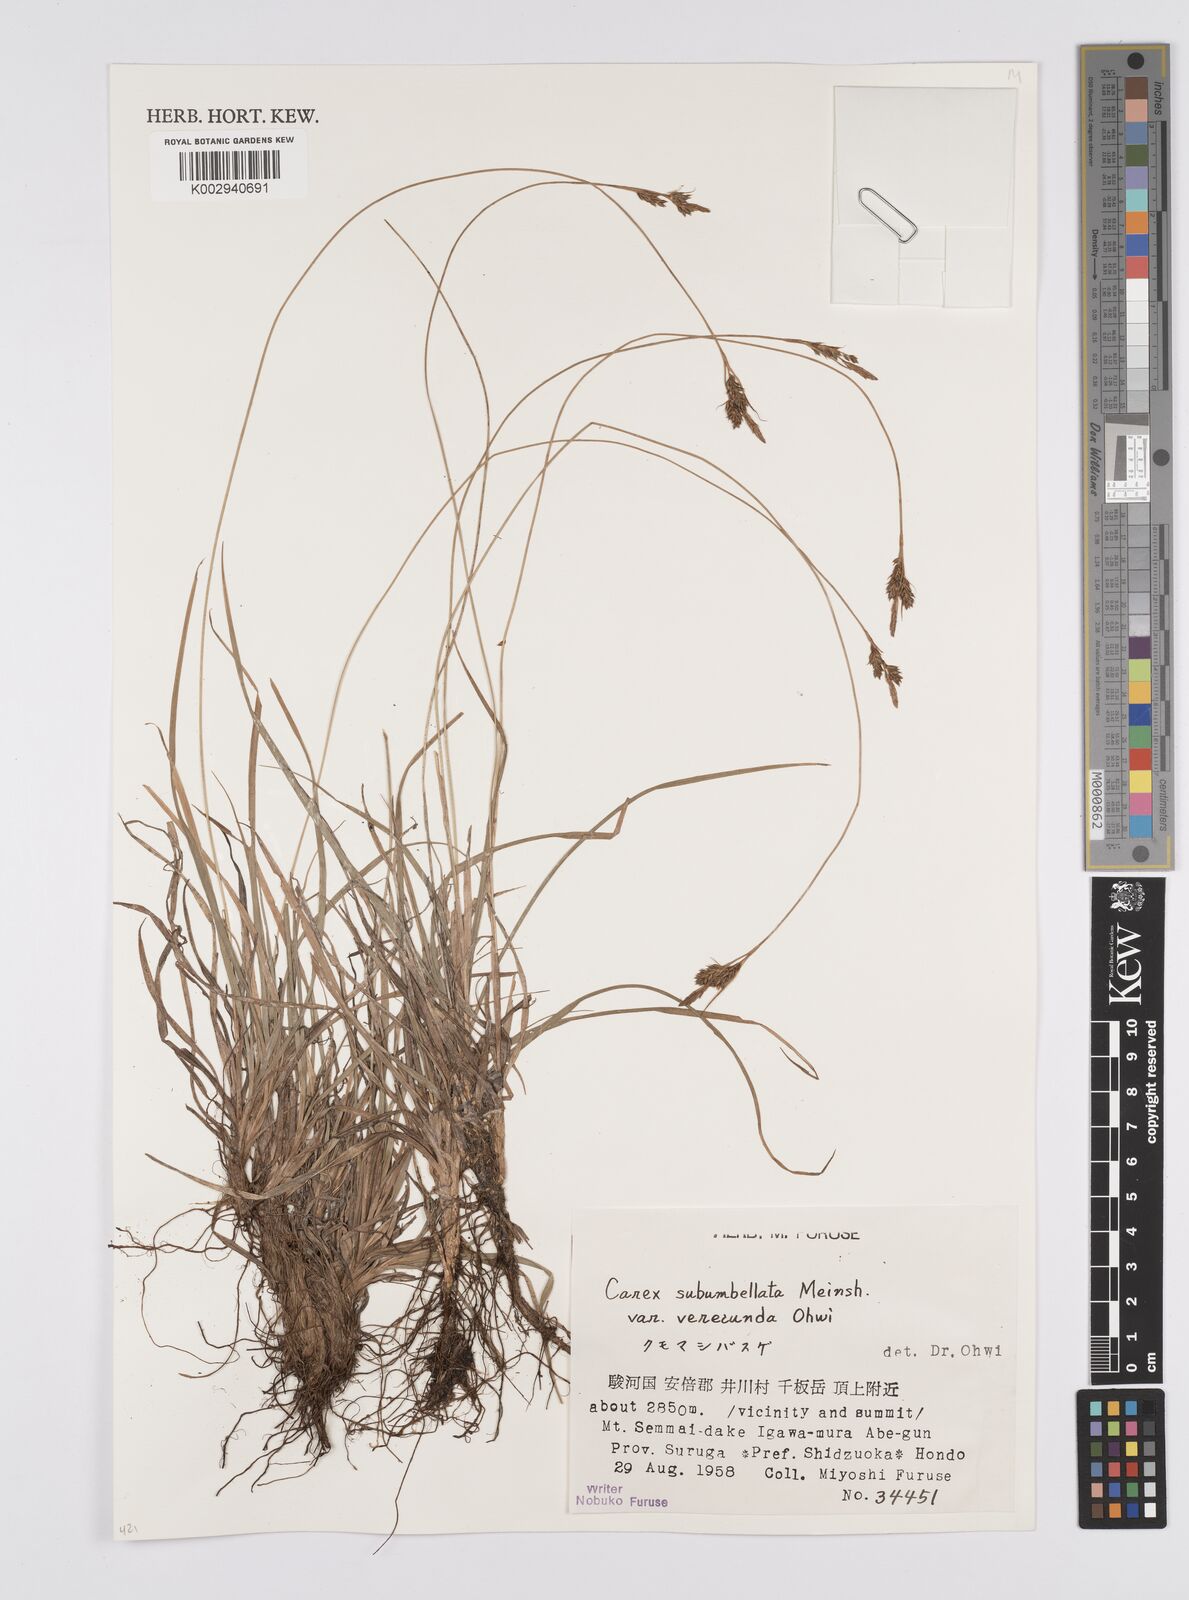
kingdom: Plantae
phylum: Tracheophyta
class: Liliopsida
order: Poales
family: Cyperaceae
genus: Carex
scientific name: Carex subumbellata
